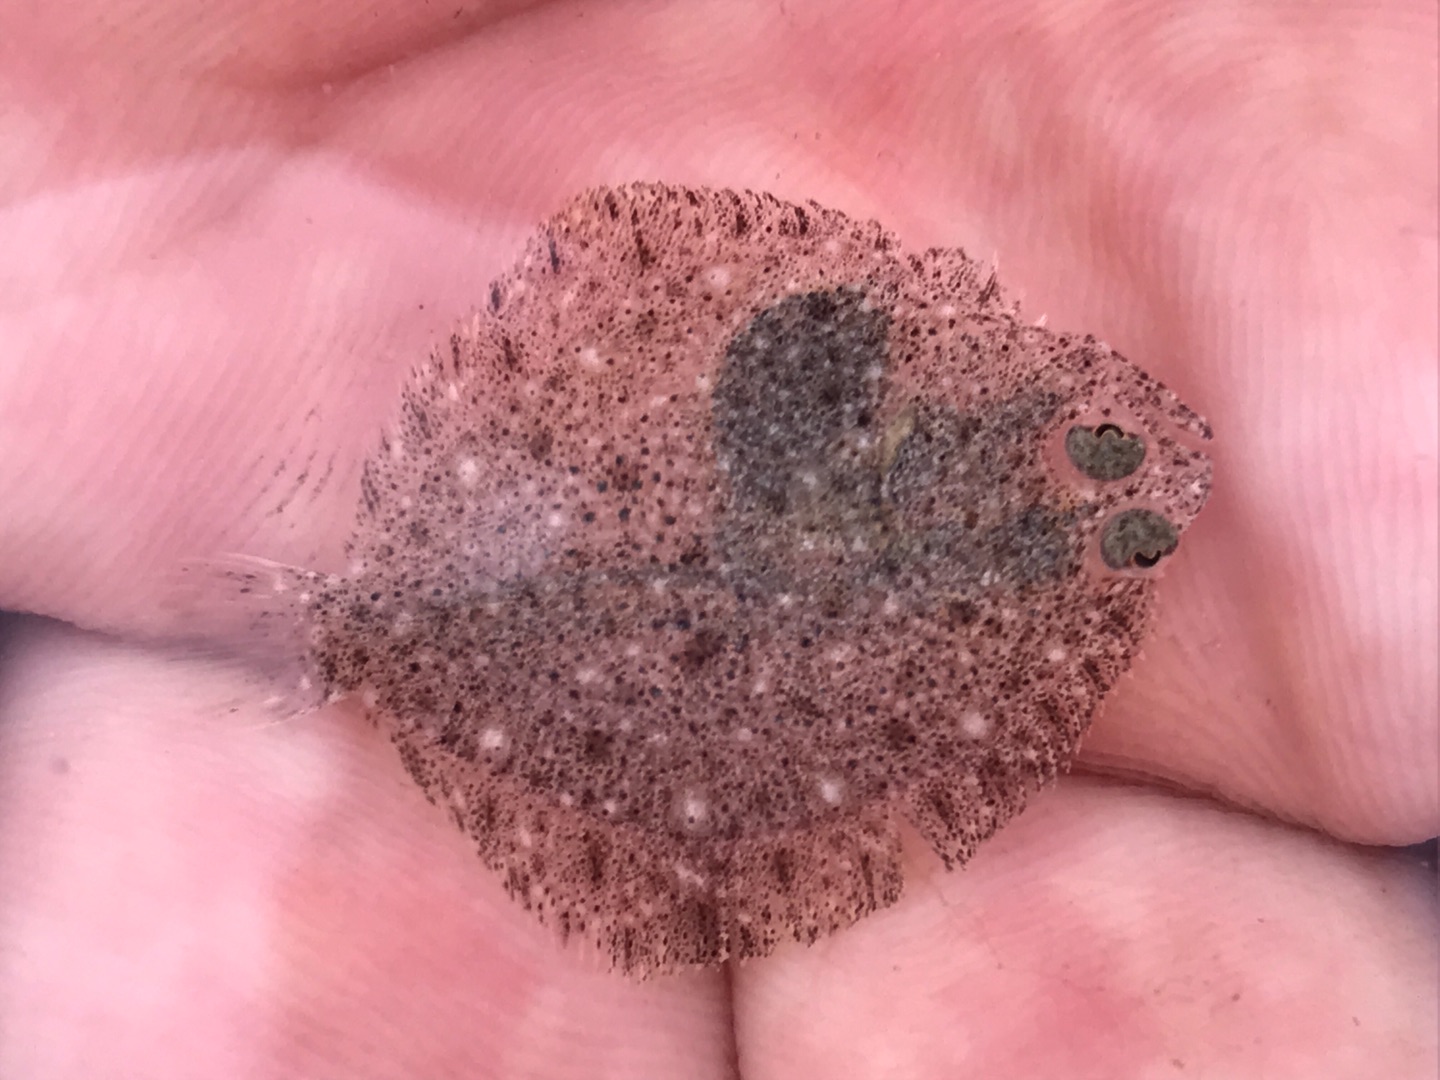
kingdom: Animalia
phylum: Chordata
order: Pleuronectiformes
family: Scophthalmidae
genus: Scophthalmus
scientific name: Scophthalmus maximus
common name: Pighvarre
